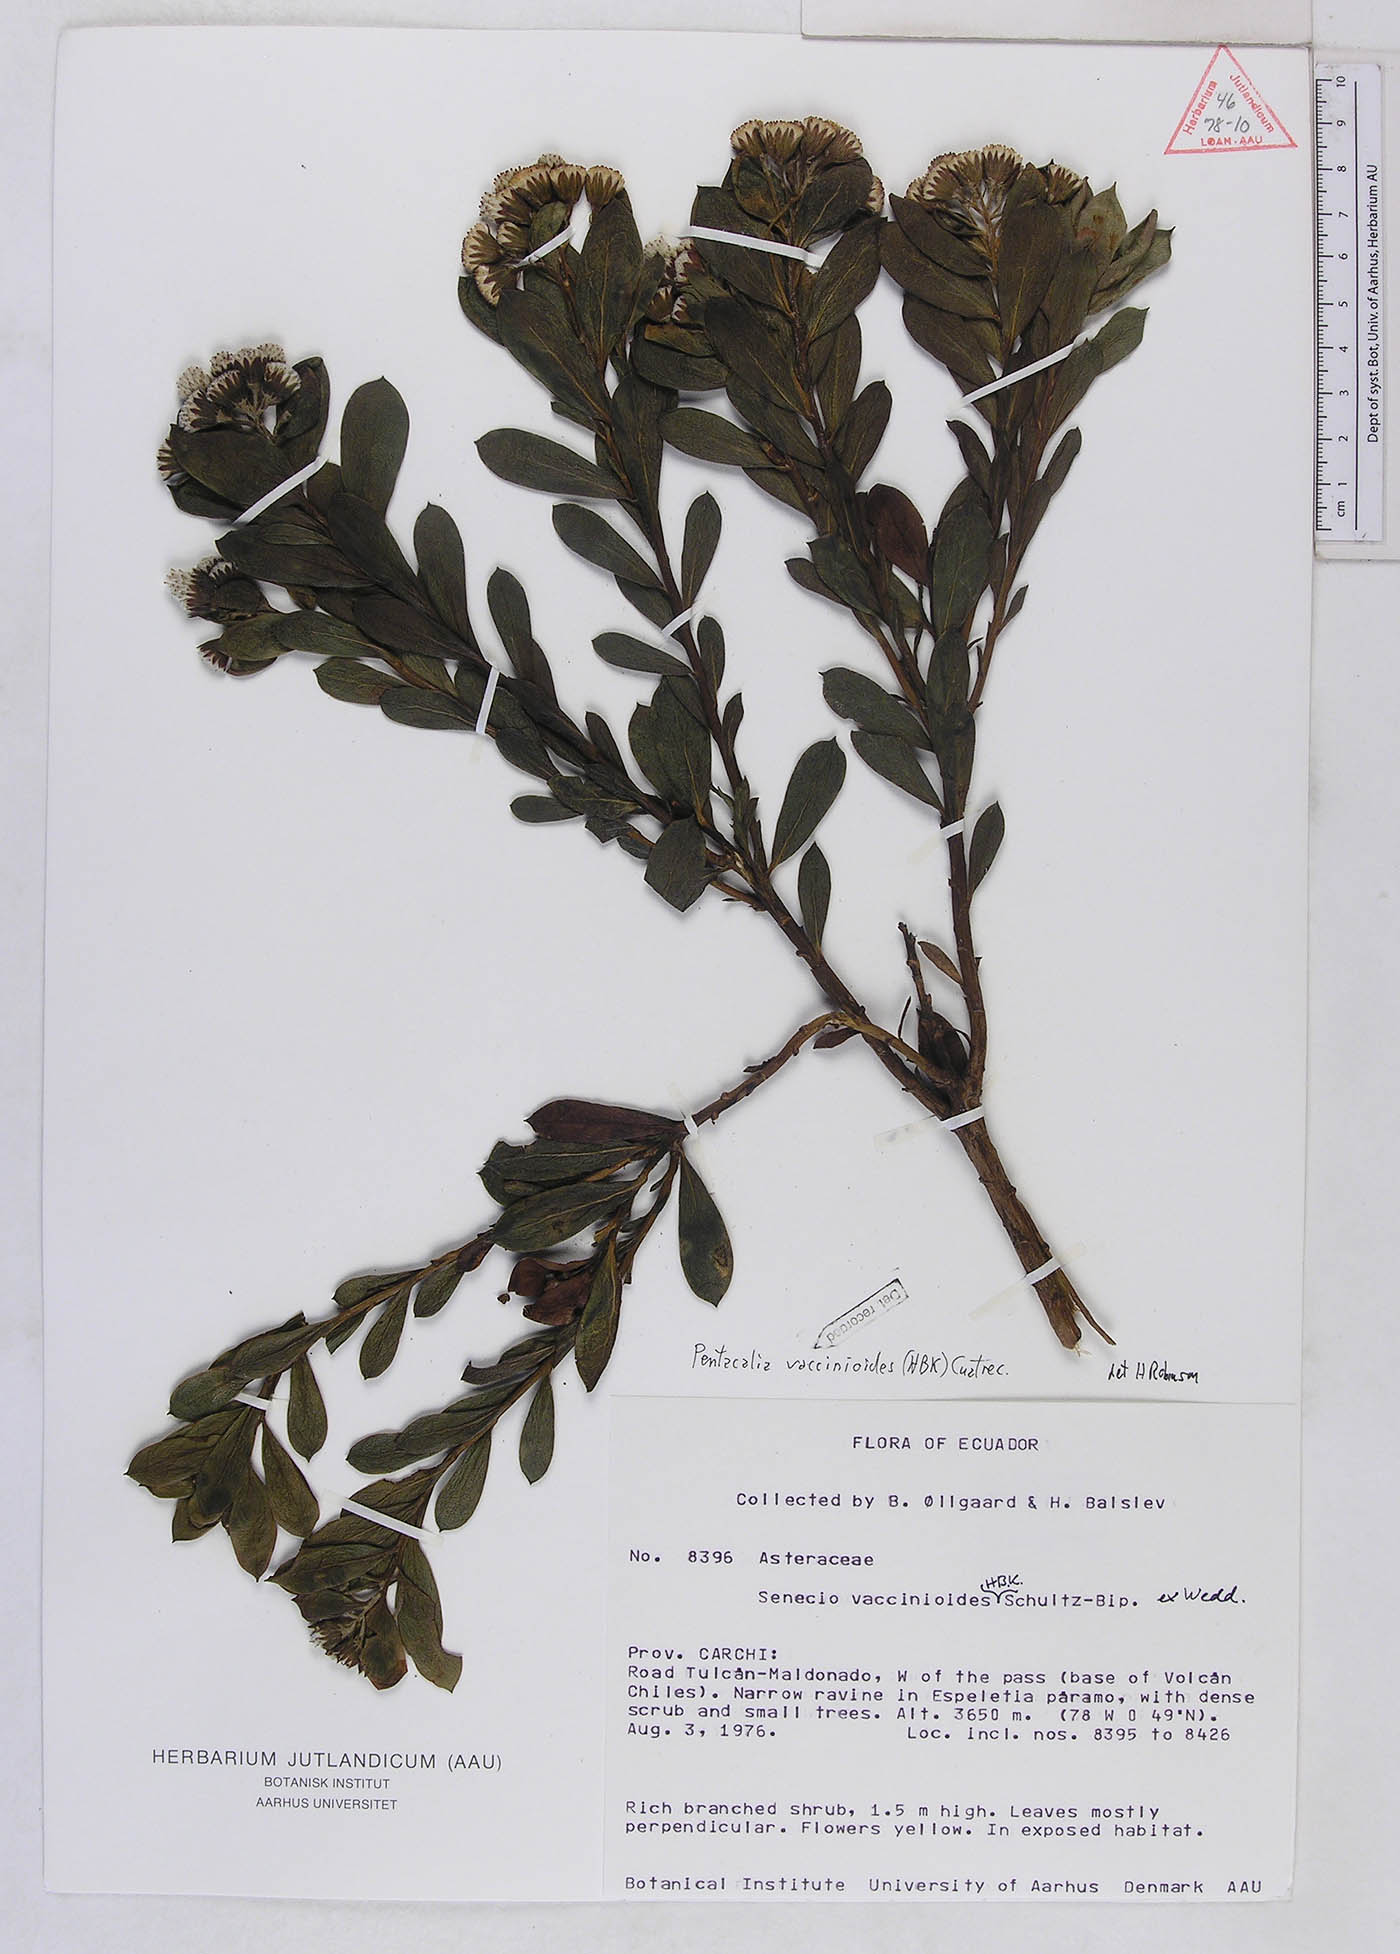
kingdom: Plantae
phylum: Tracheophyta
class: Magnoliopsida
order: Asterales
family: Asteraceae
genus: Monticalia
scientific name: Monticalia vaccinioides
